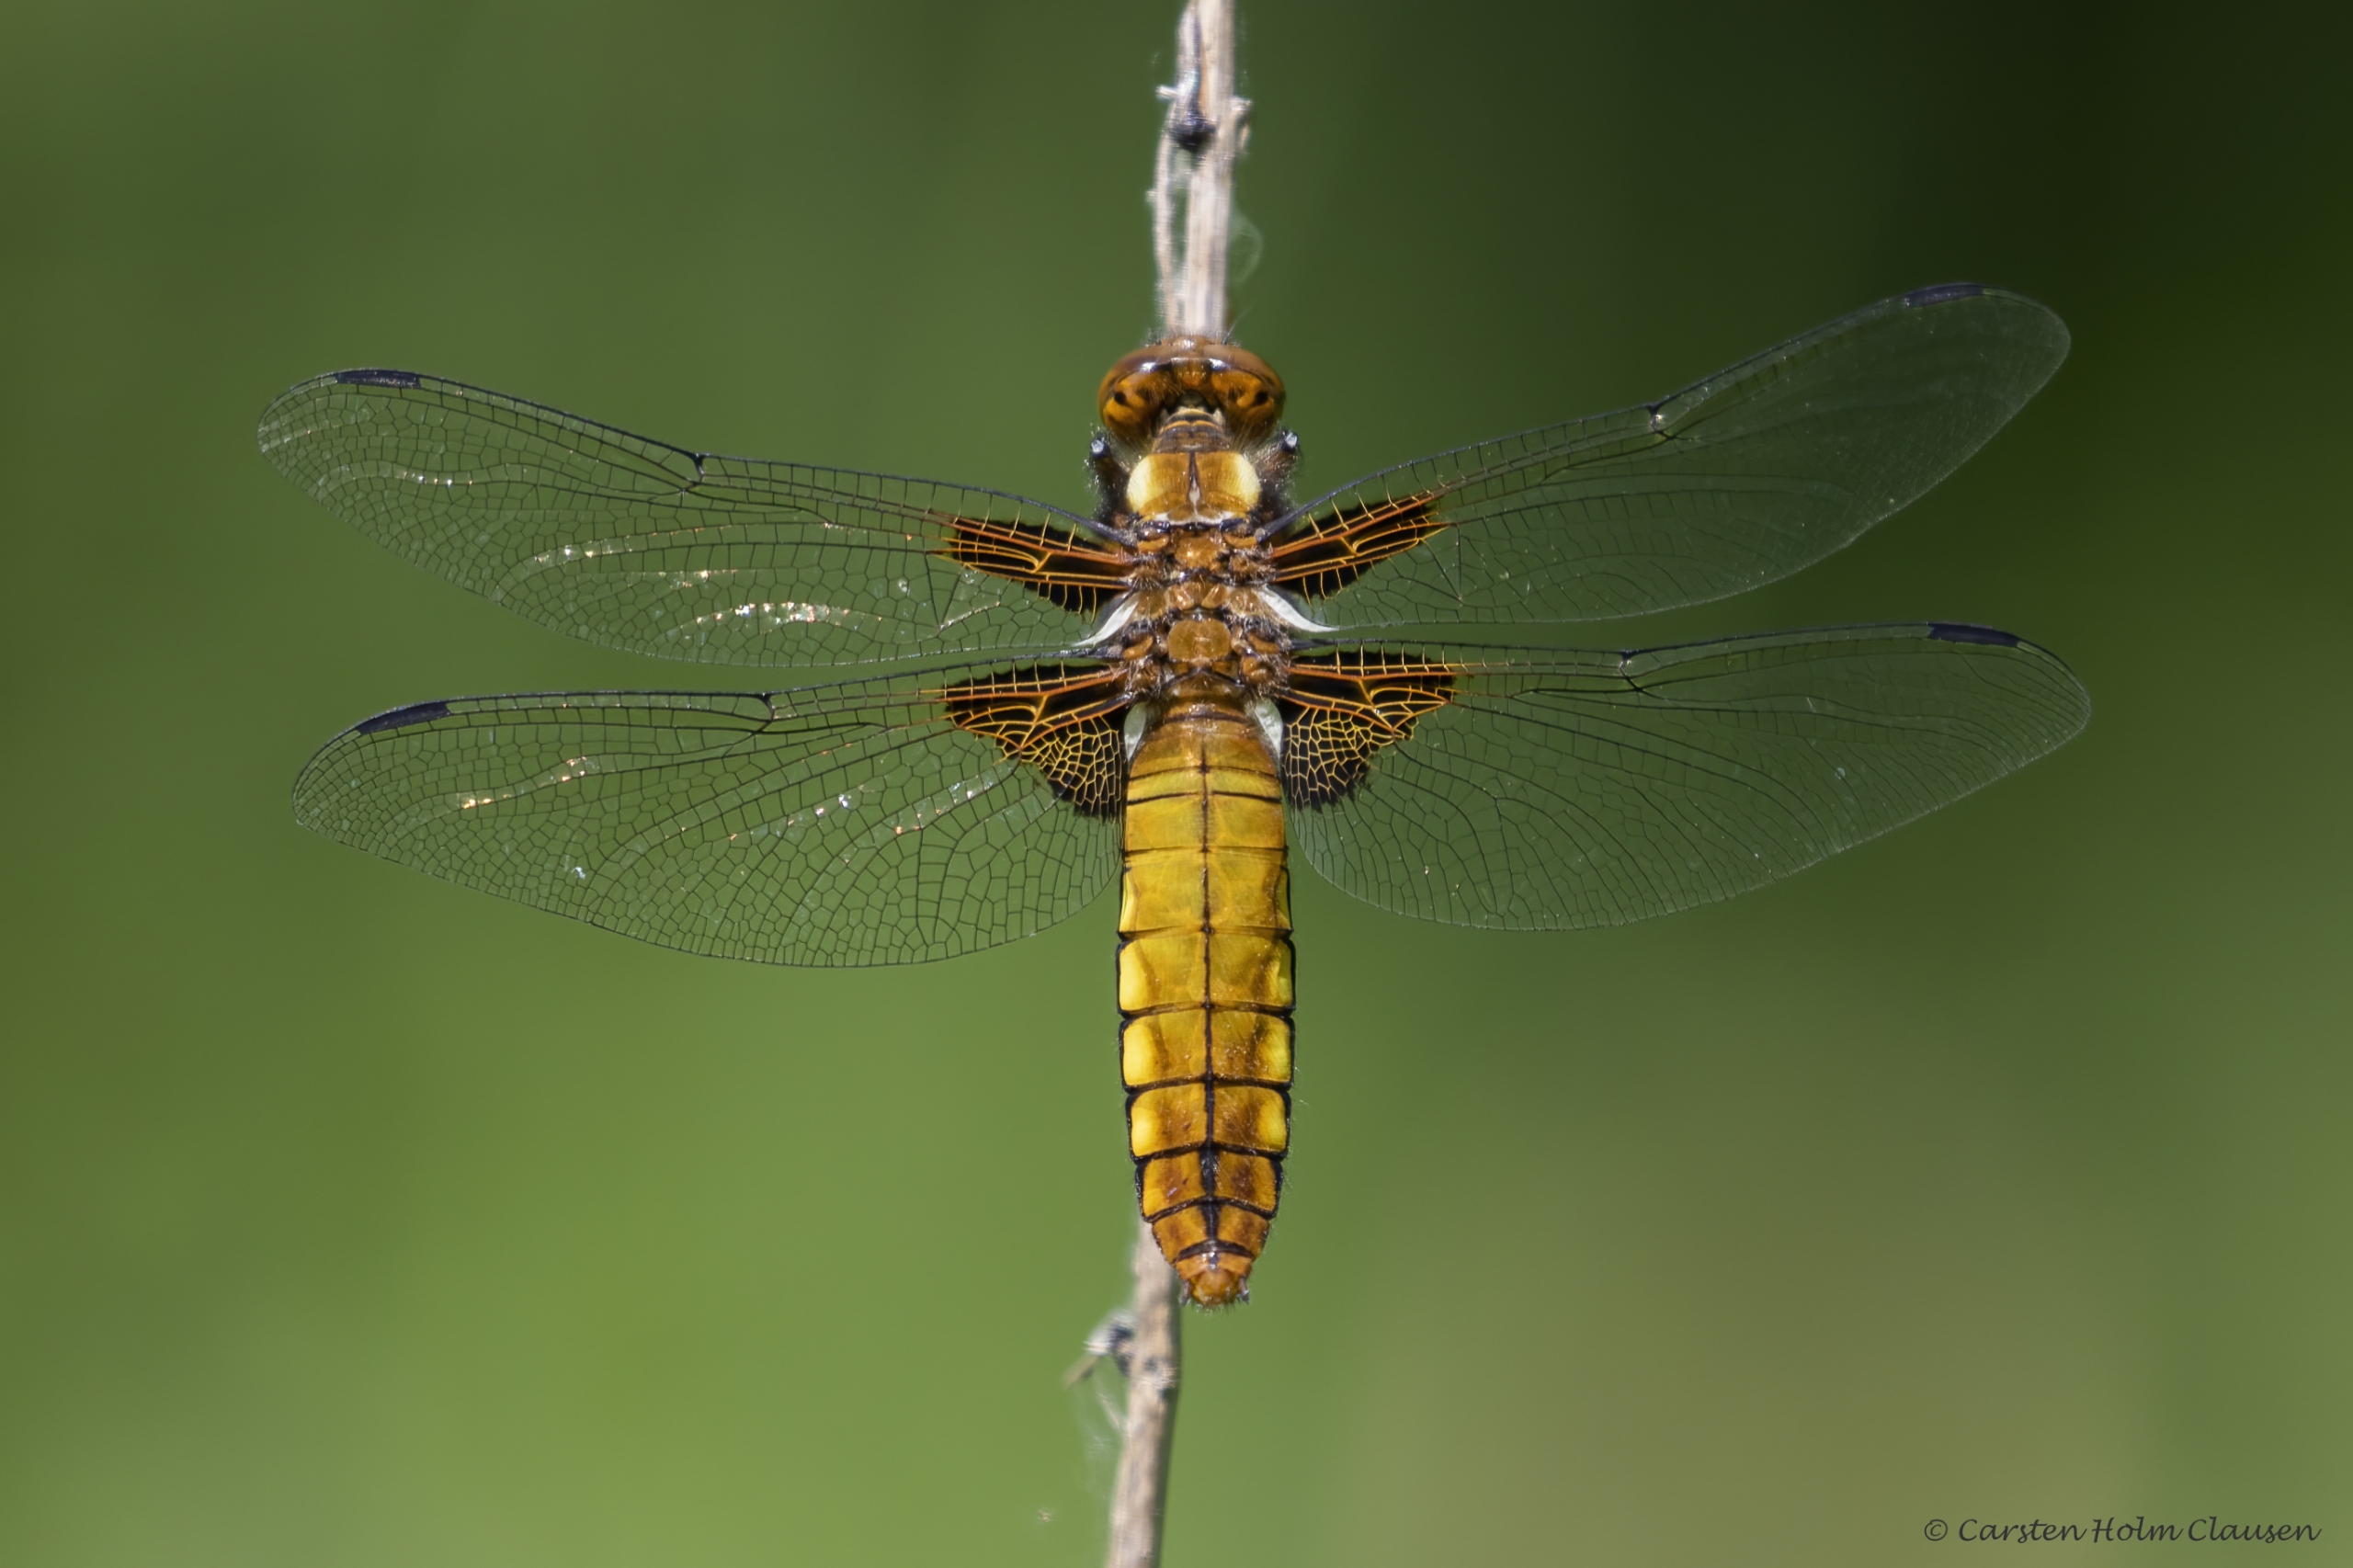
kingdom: Animalia
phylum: Arthropoda
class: Insecta
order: Odonata
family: Libellulidae
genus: Libellula
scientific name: Libellula depressa
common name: Blå libel
